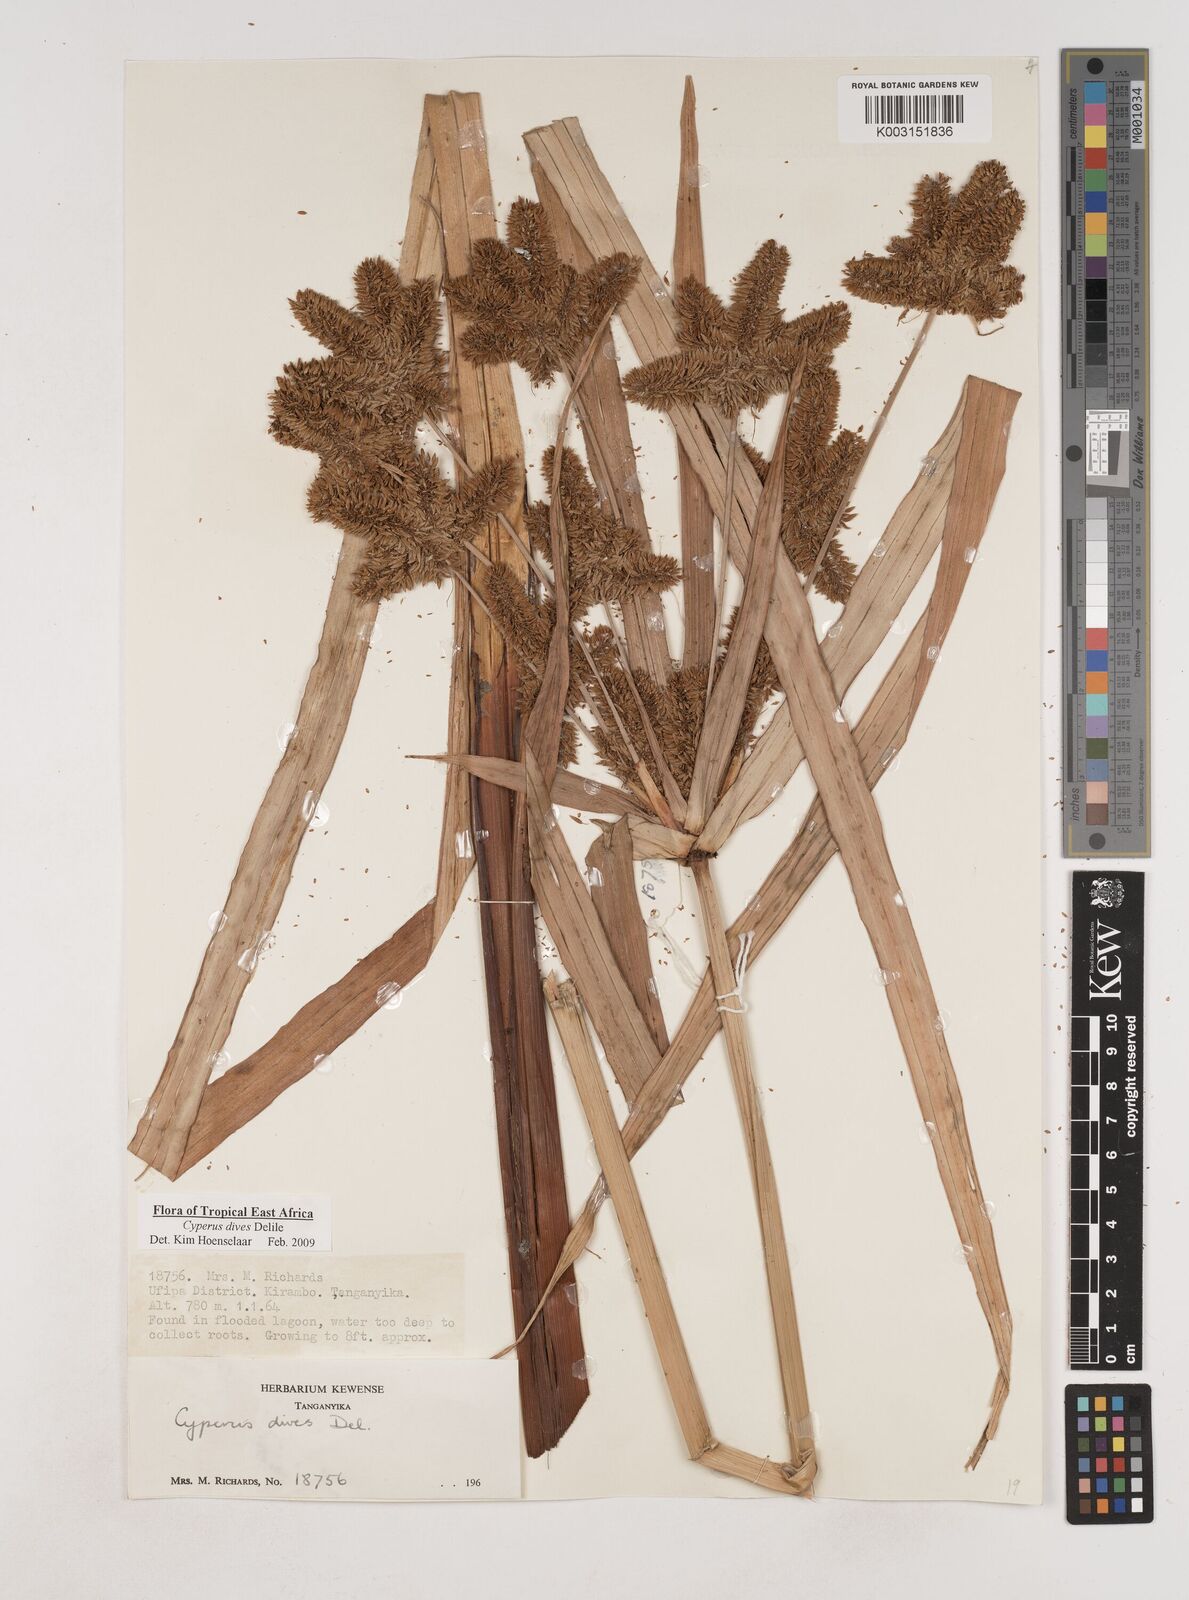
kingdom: Plantae
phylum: Tracheophyta
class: Liliopsida
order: Poales
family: Cyperaceae
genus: Cyperus
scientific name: Cyperus dives
